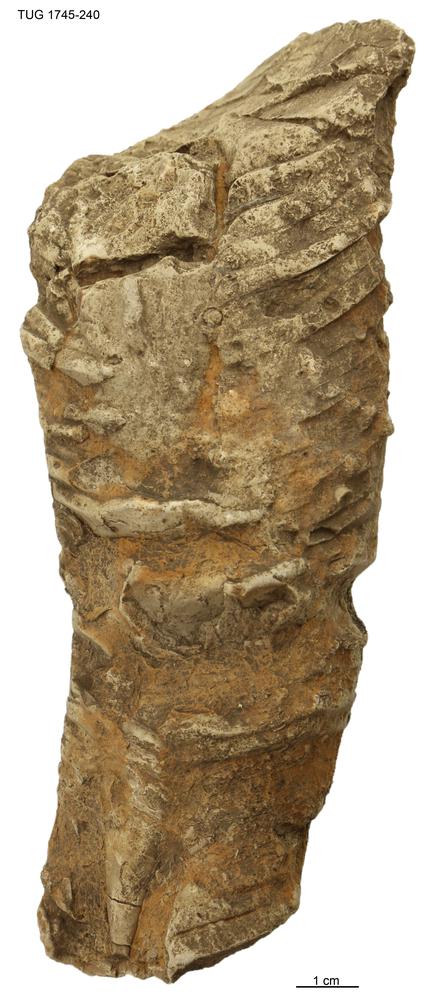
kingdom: Animalia
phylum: Mollusca
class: Cephalopoda
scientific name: Cephalopoda
